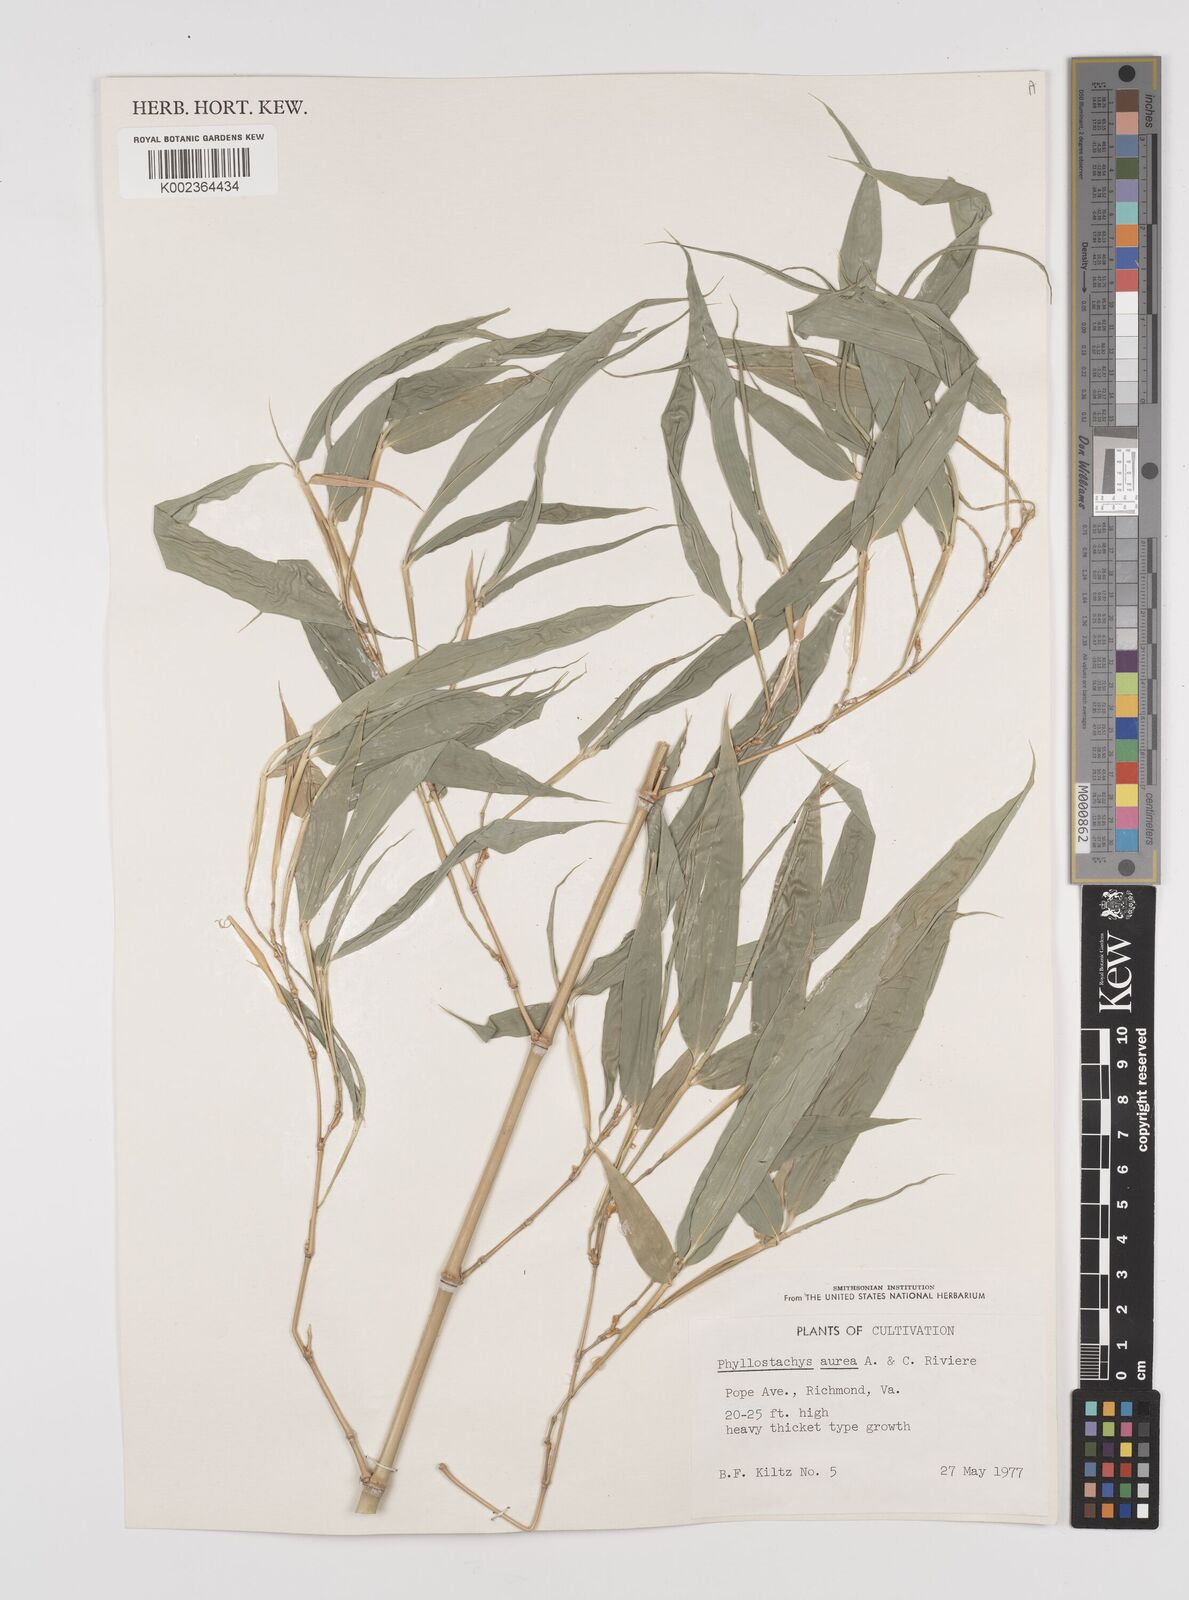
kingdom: Plantae
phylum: Tracheophyta
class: Liliopsida
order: Poales
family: Poaceae
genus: Phyllostachys
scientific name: Phyllostachys aurea
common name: Golden bamboo
